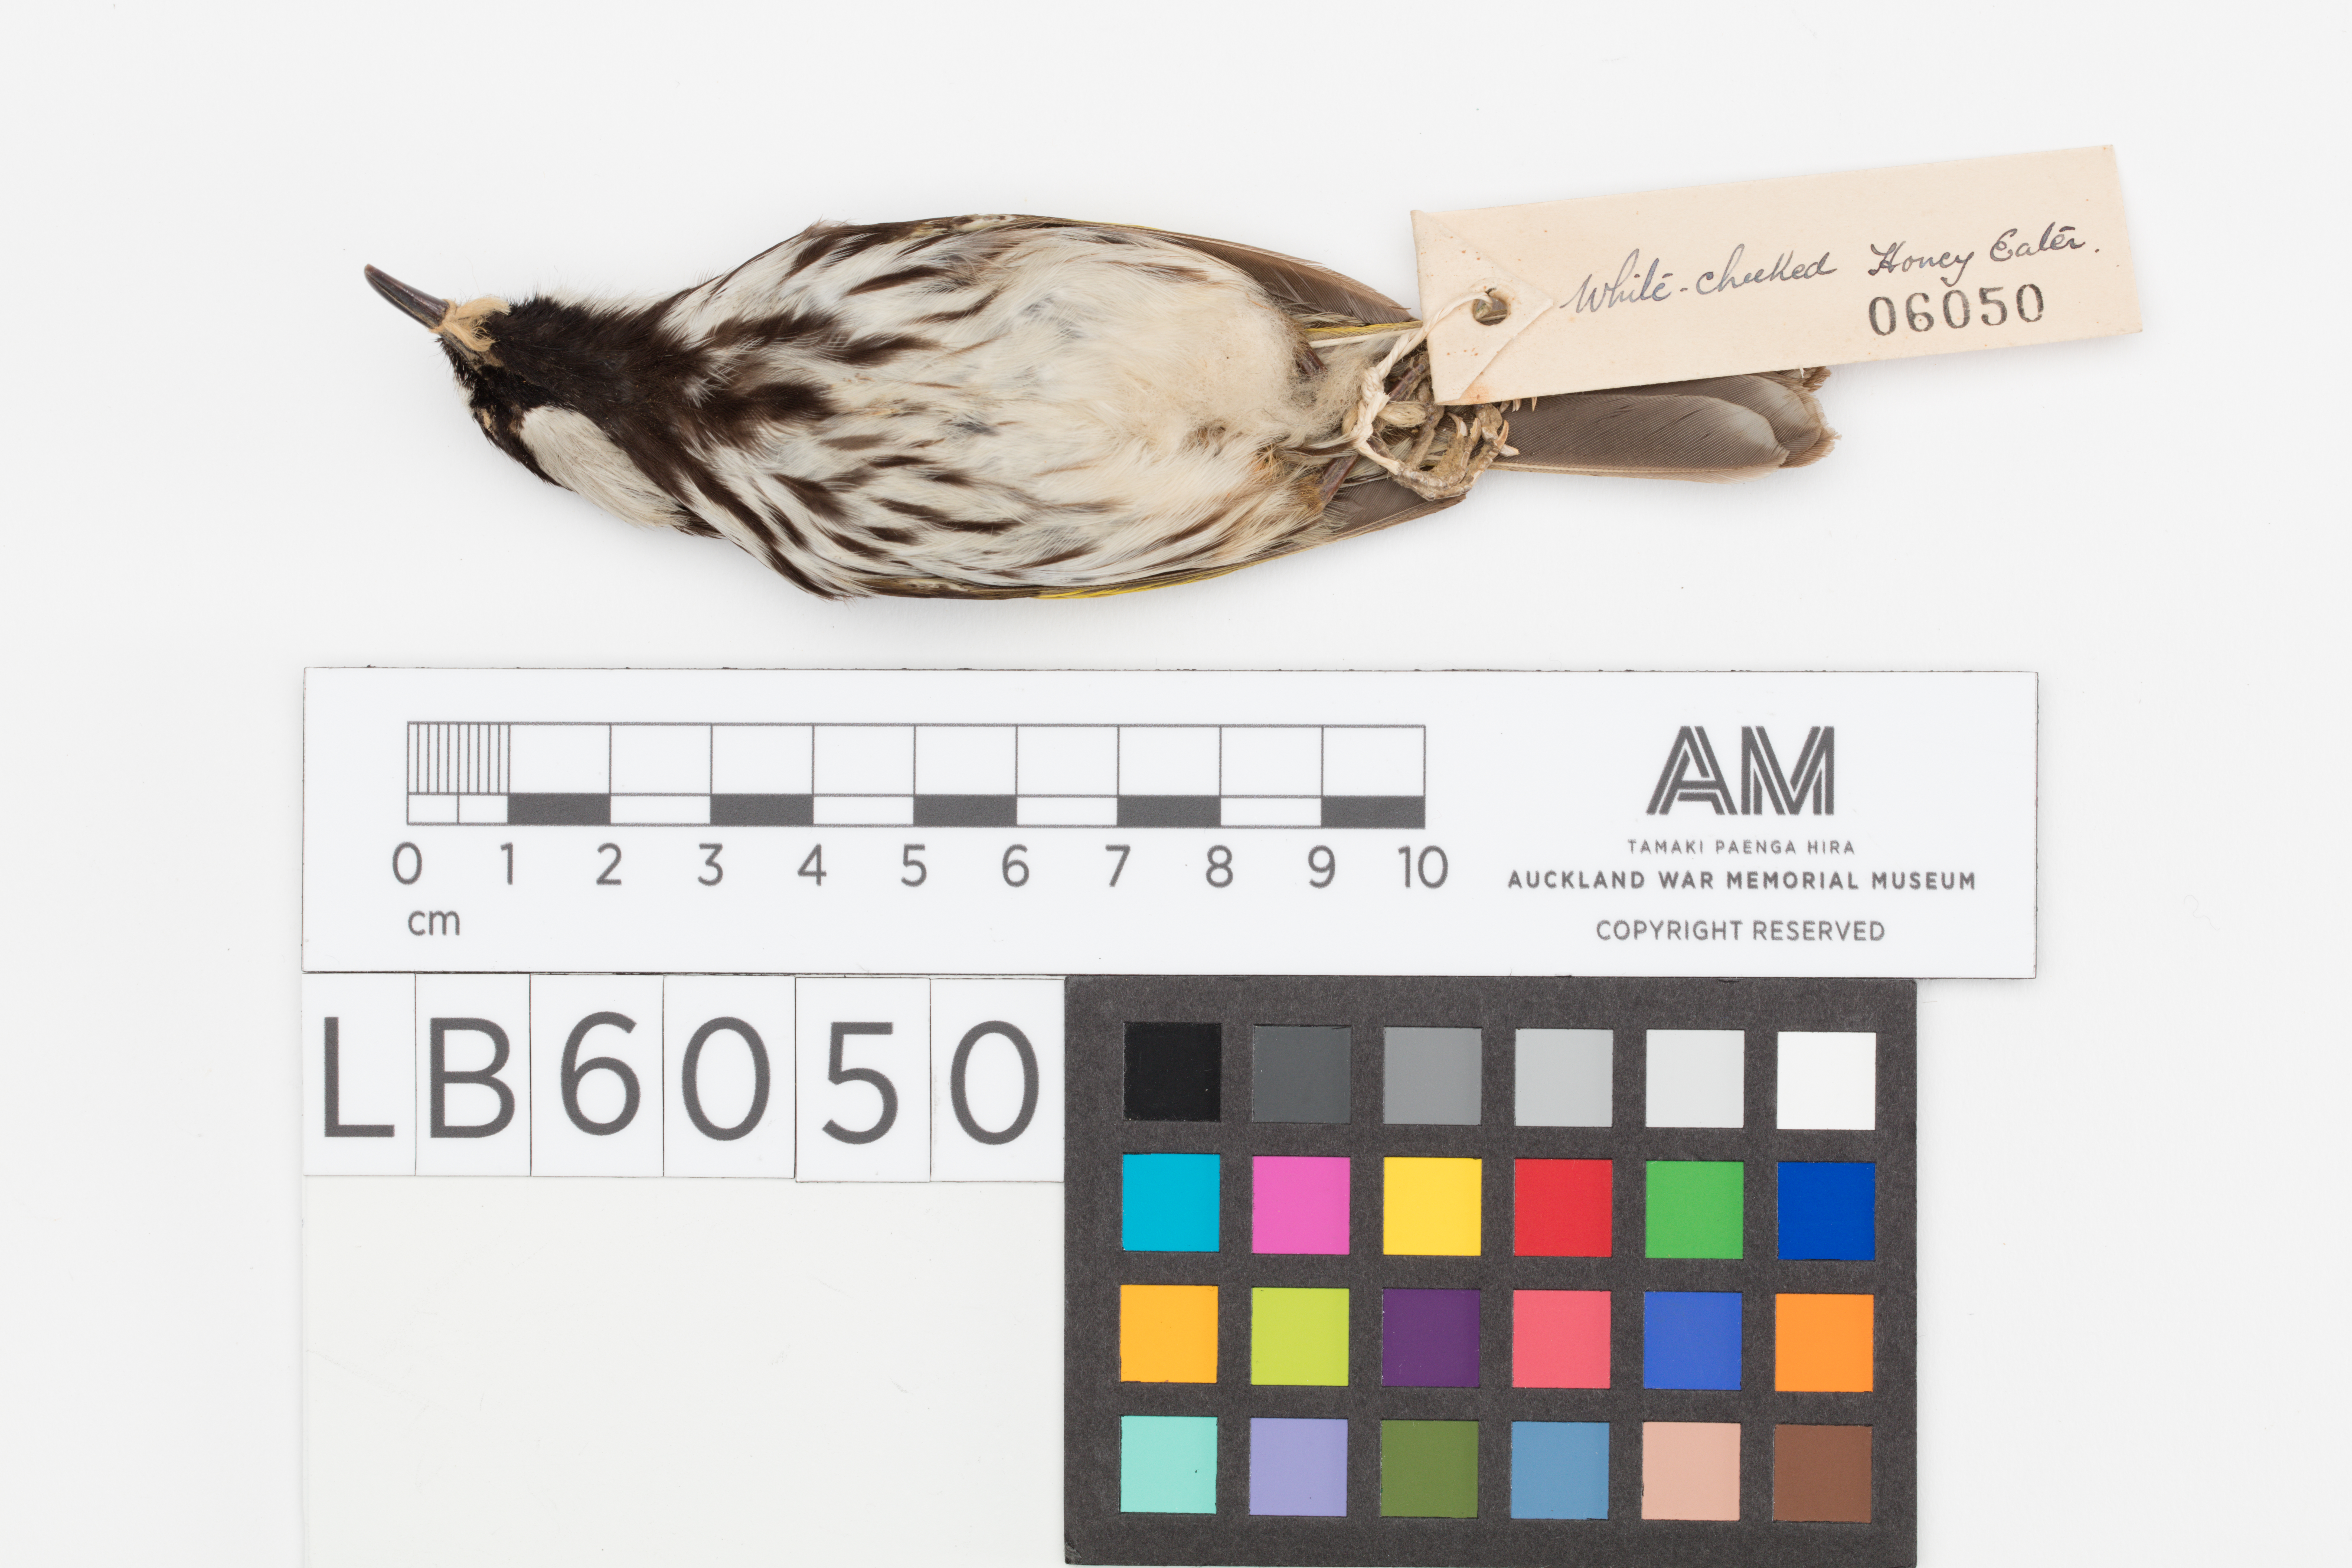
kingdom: Animalia
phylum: Chordata
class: Aves
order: Passeriformes
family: Meliphagidae
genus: Phylidonyris
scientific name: Phylidonyris niger
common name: White-cheeked honeyeater
